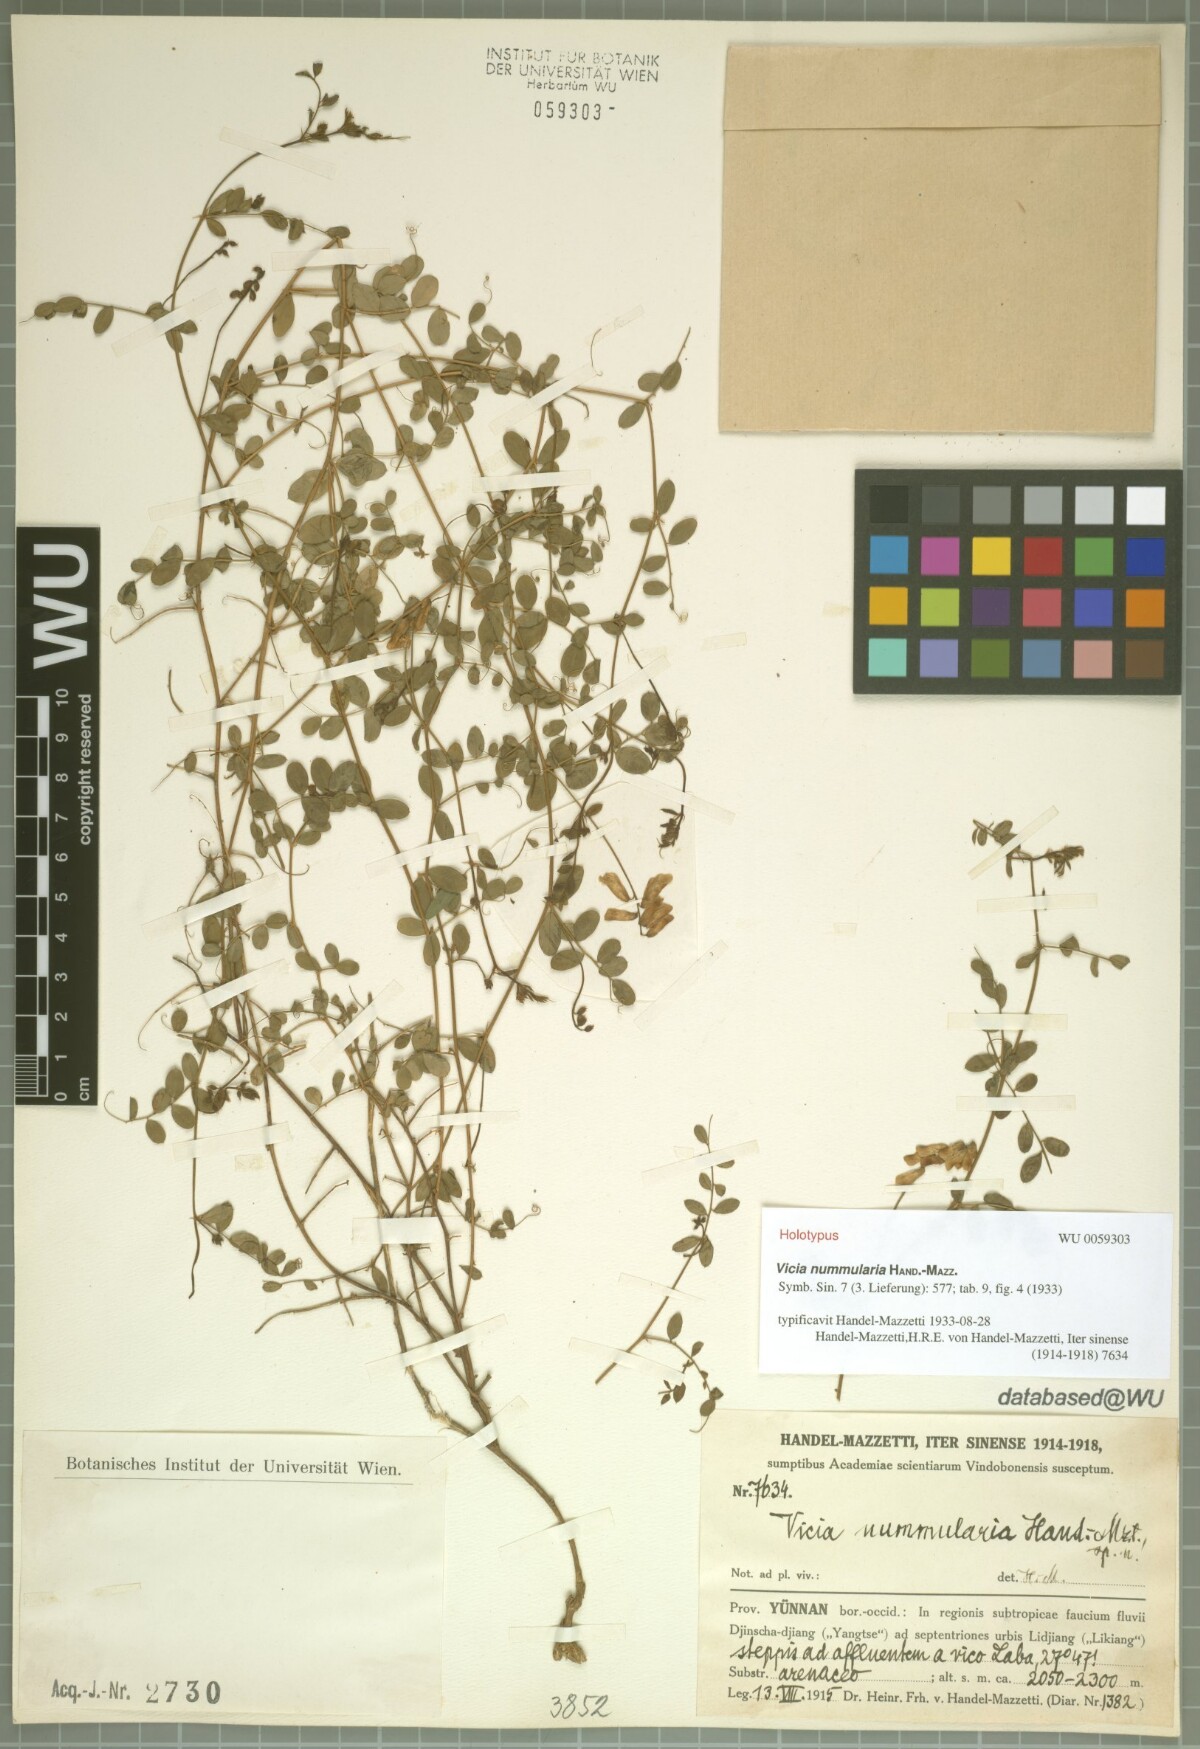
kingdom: Plantae
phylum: Tracheophyta
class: Magnoliopsida
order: Fabales
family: Fabaceae
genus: Vicia
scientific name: Vicia nummularia
